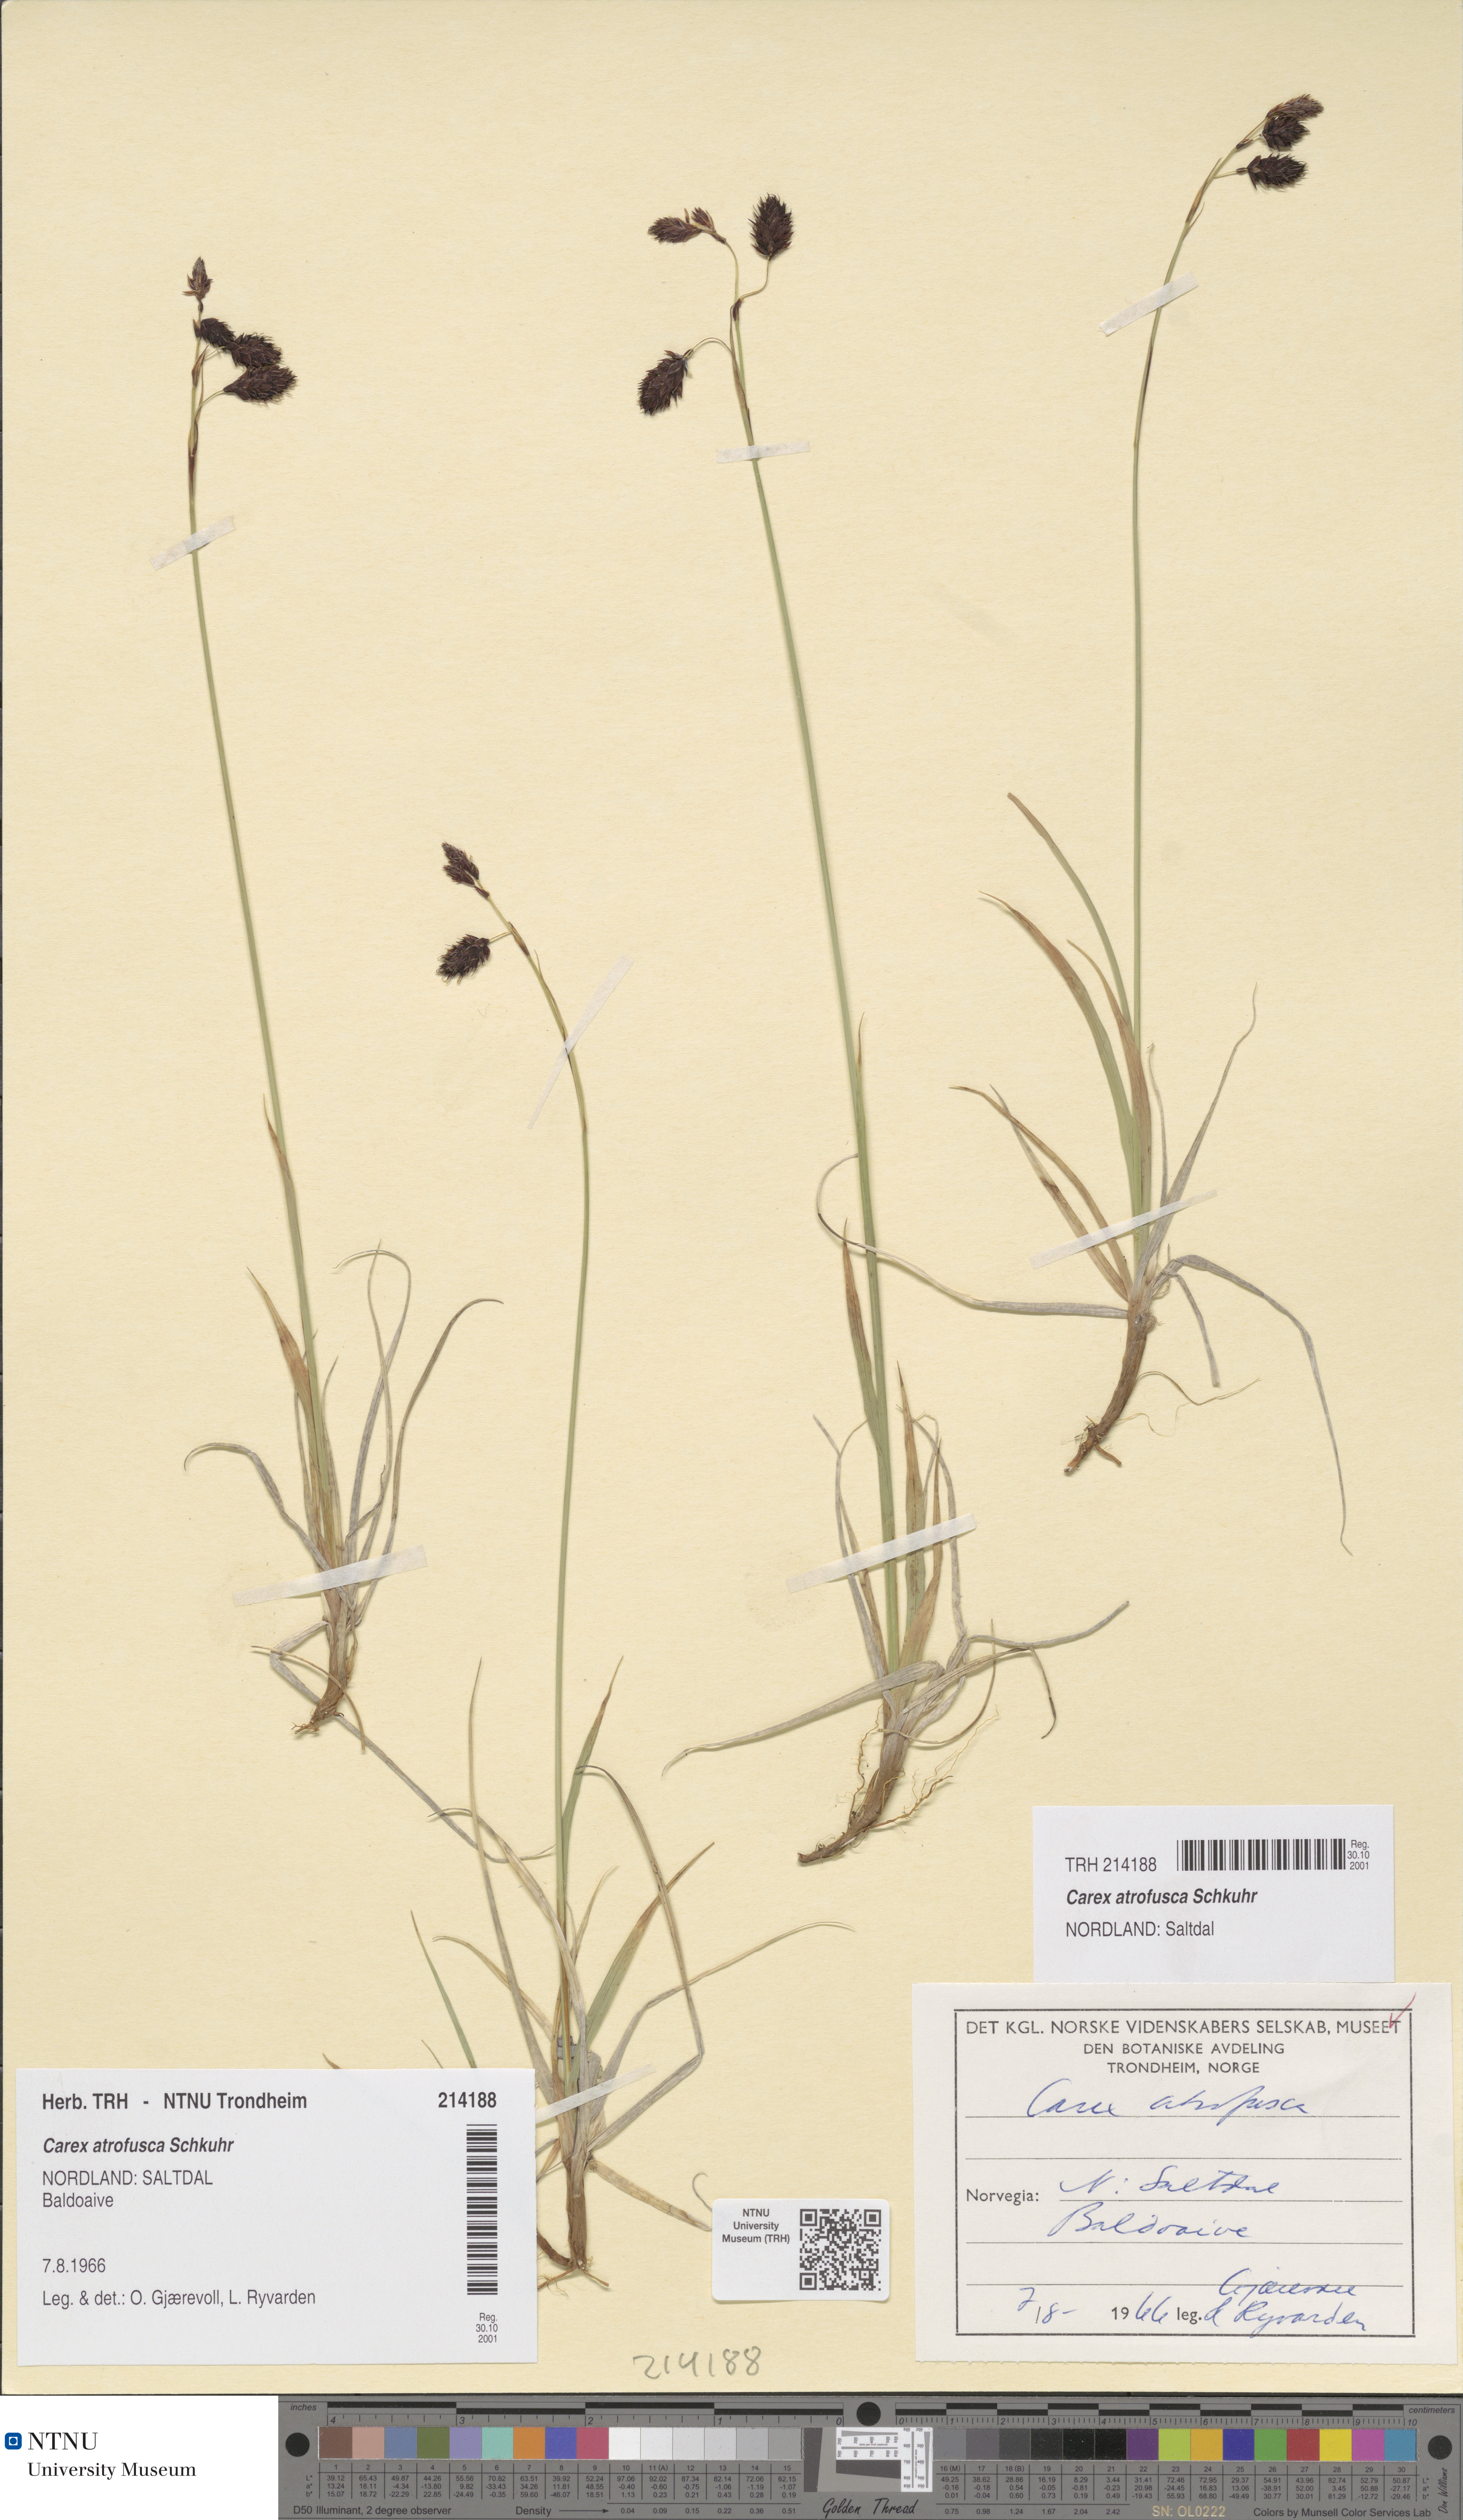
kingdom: Plantae
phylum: Tracheophyta
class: Liliopsida
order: Poales
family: Cyperaceae
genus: Carex
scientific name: Carex atrofusca
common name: Scorched alpine-sedge
